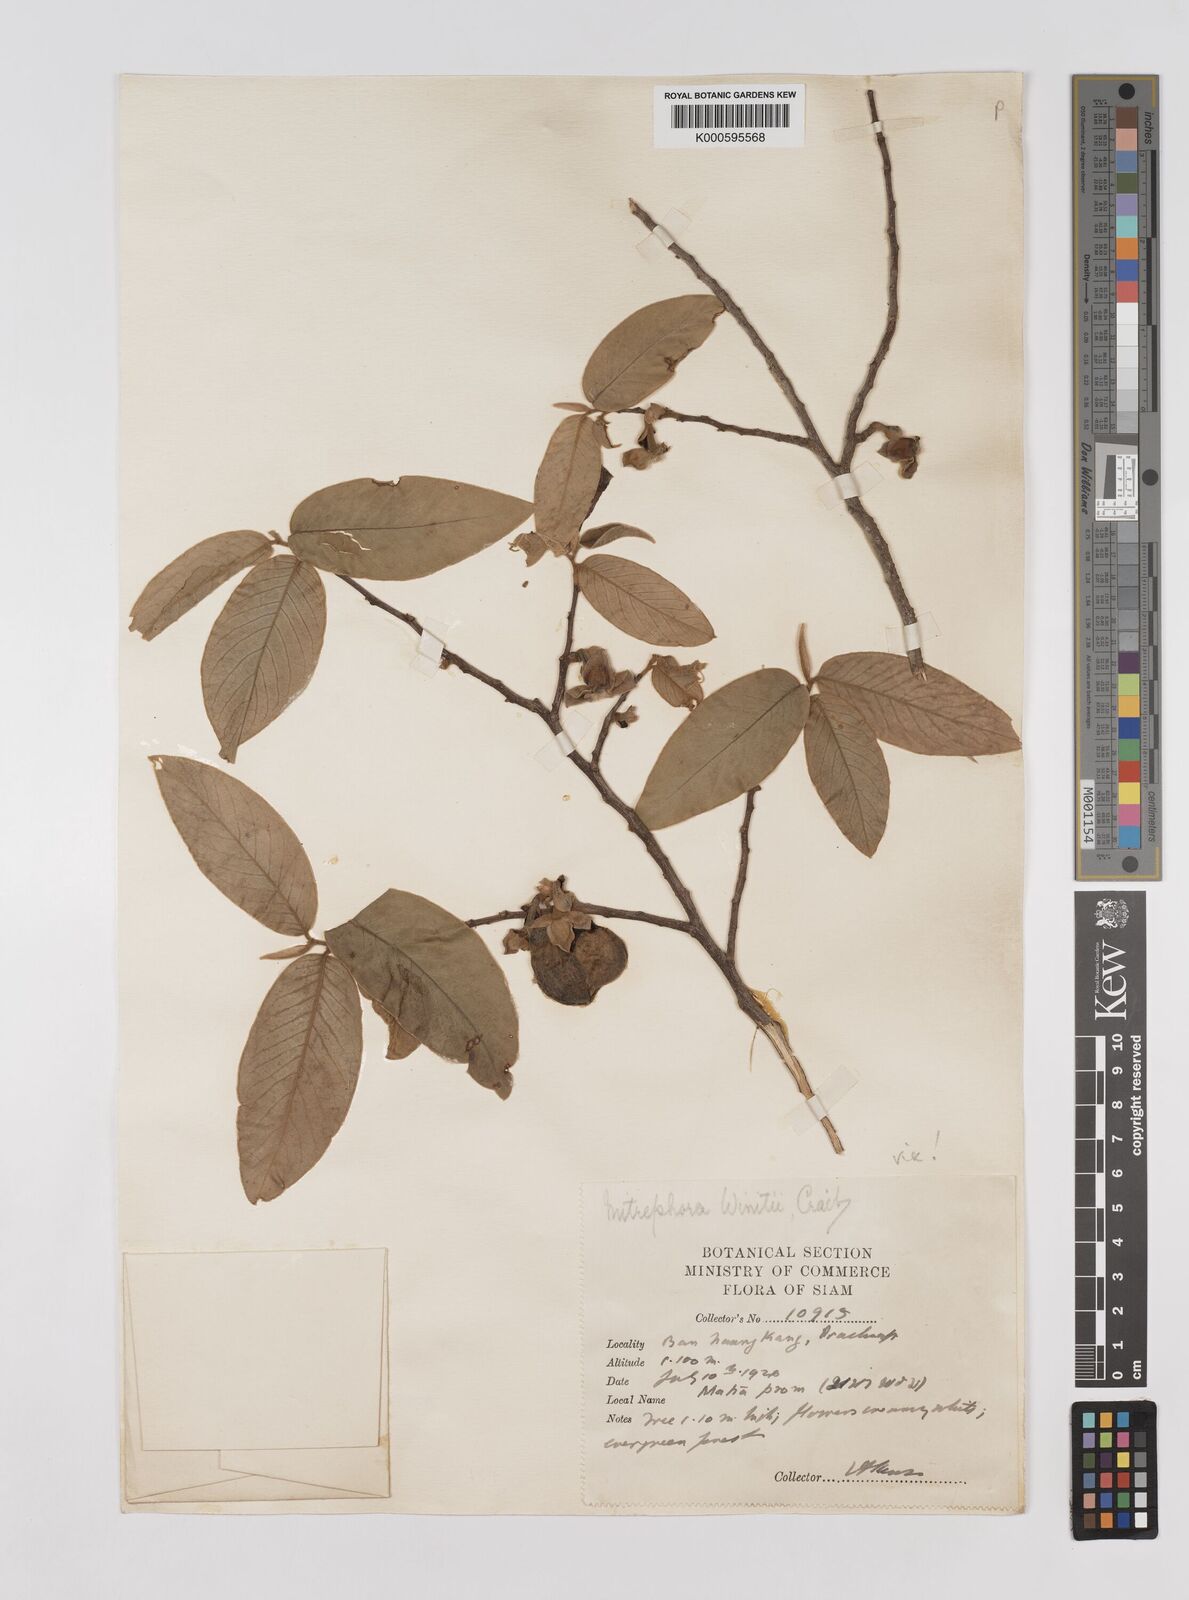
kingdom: Plantae
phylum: Tracheophyta
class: Magnoliopsida
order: Magnoliales
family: Annonaceae
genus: Mitrephora
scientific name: Mitrephora winitii
